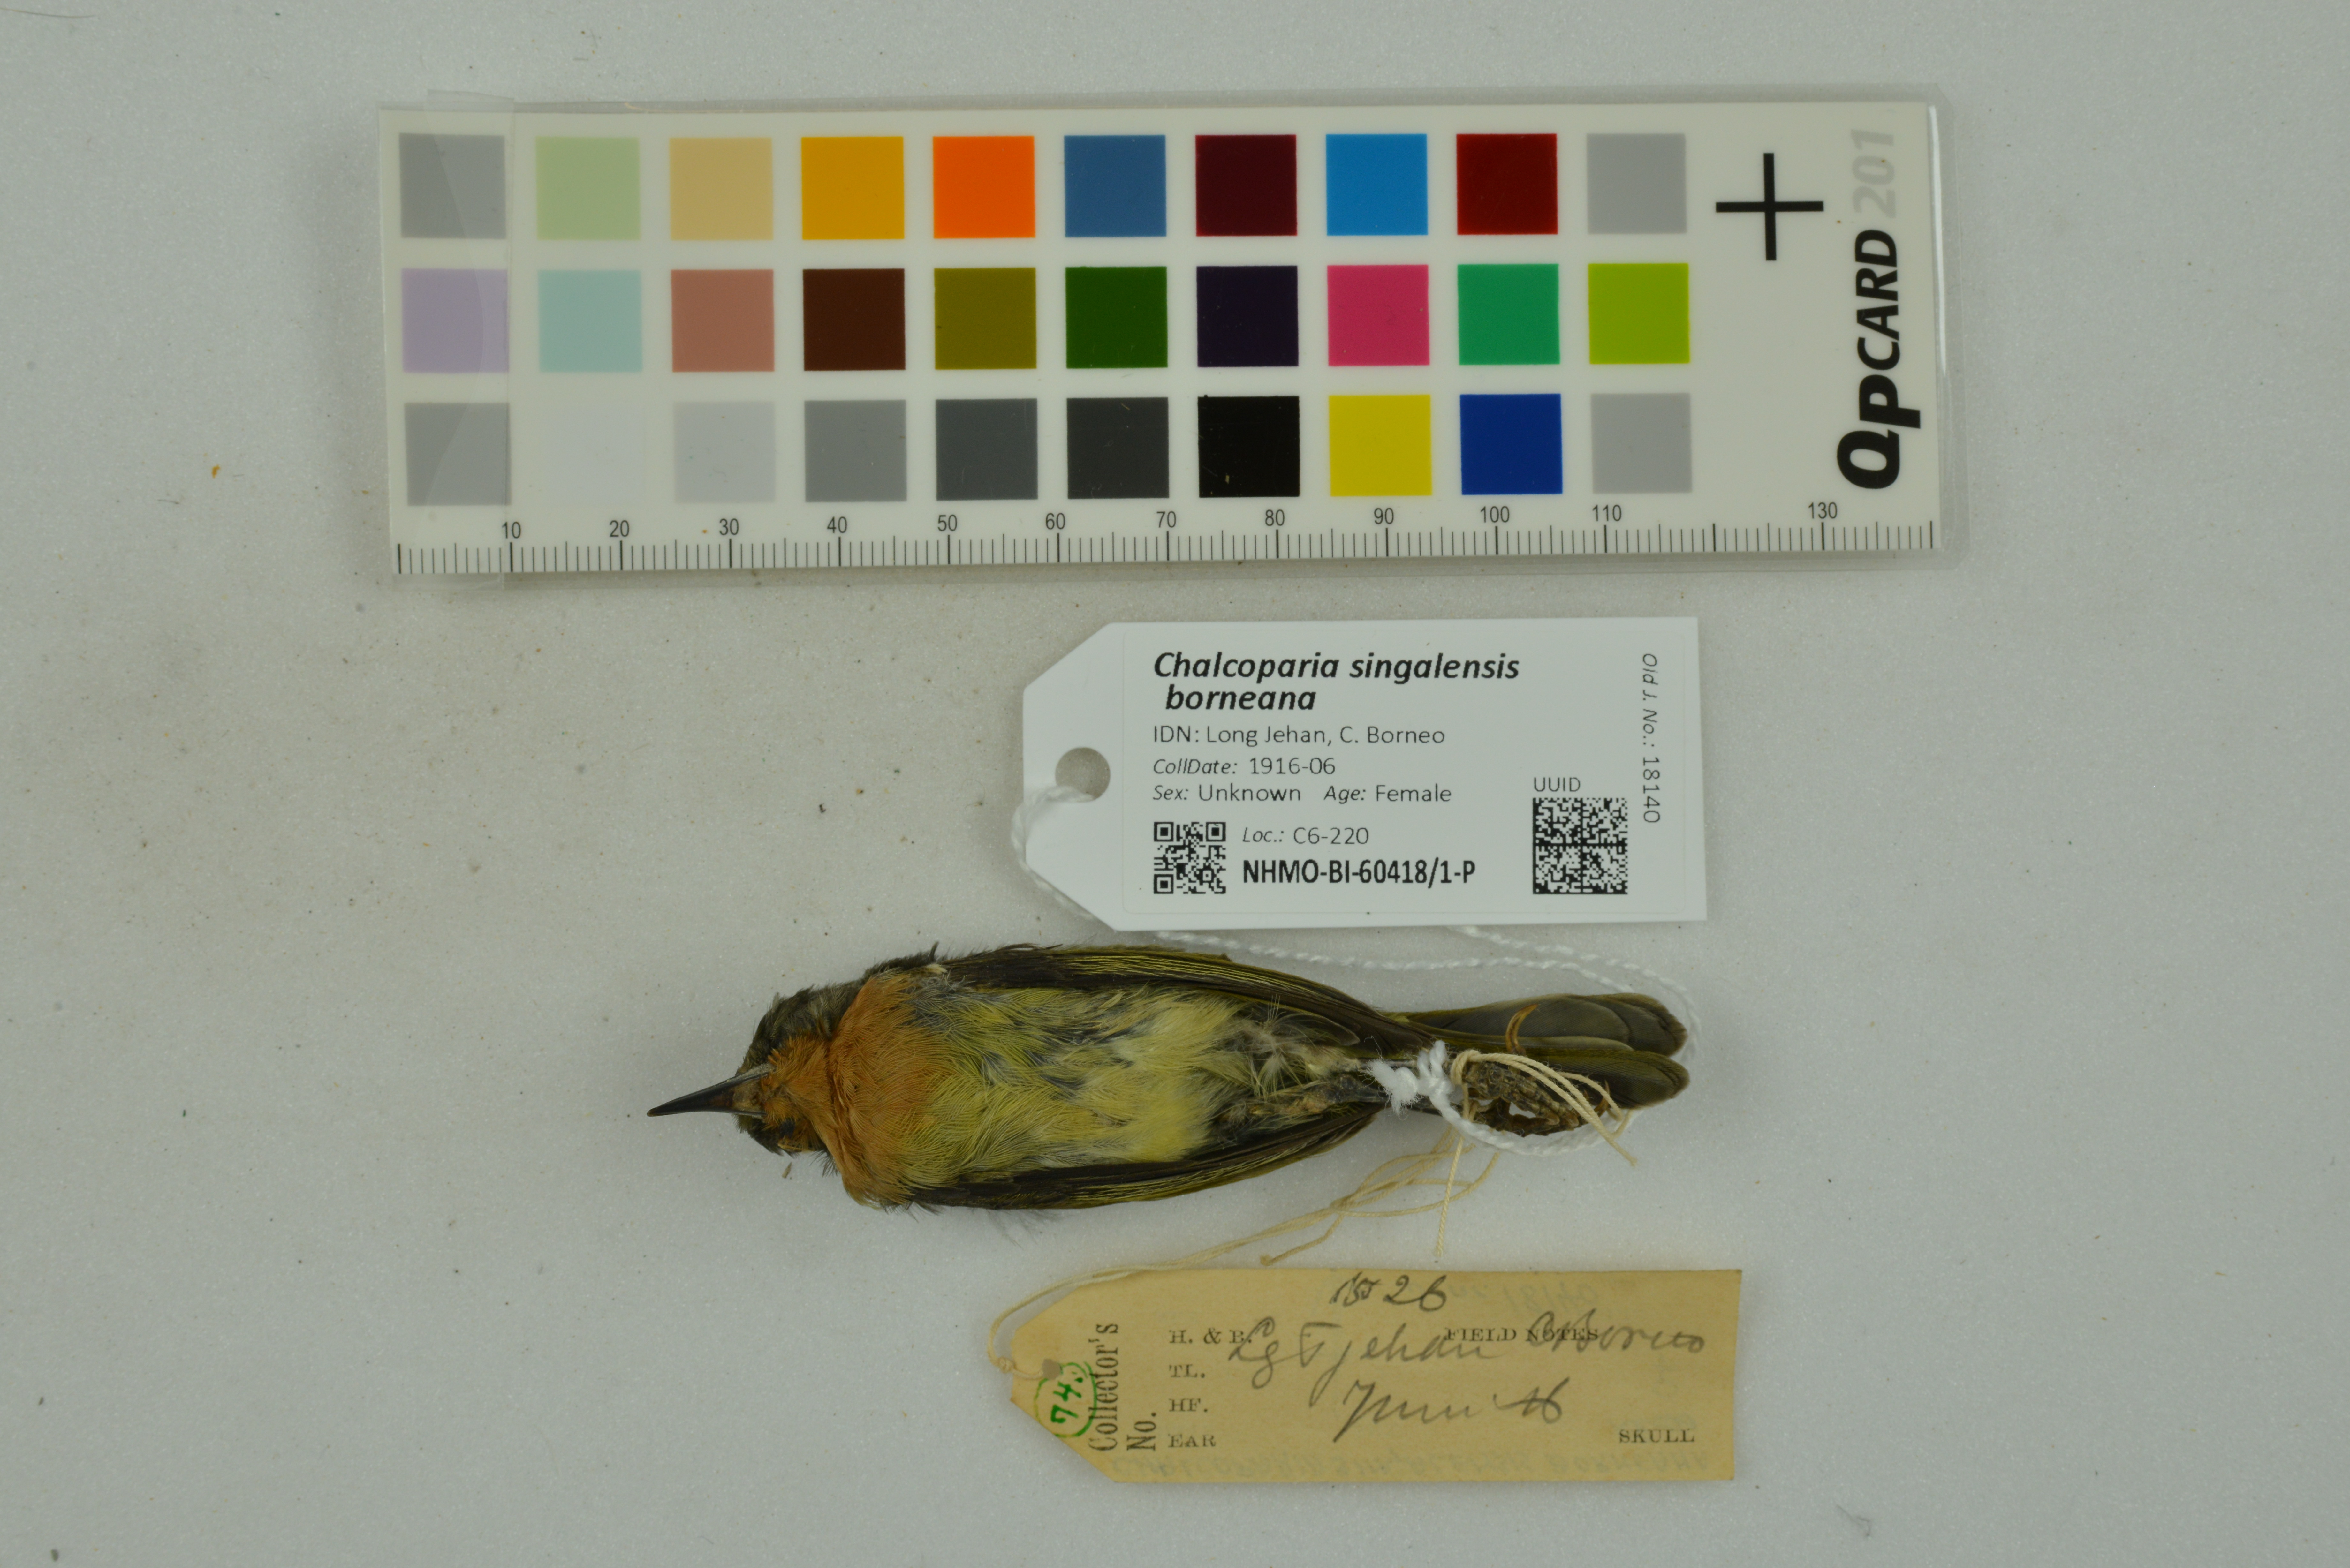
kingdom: Animalia
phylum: Chordata
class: Aves
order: Passeriformes
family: Nectariniidae
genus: Chalcoparia
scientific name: Chalcoparia singalensis
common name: Ruby-cheeked sunbird
